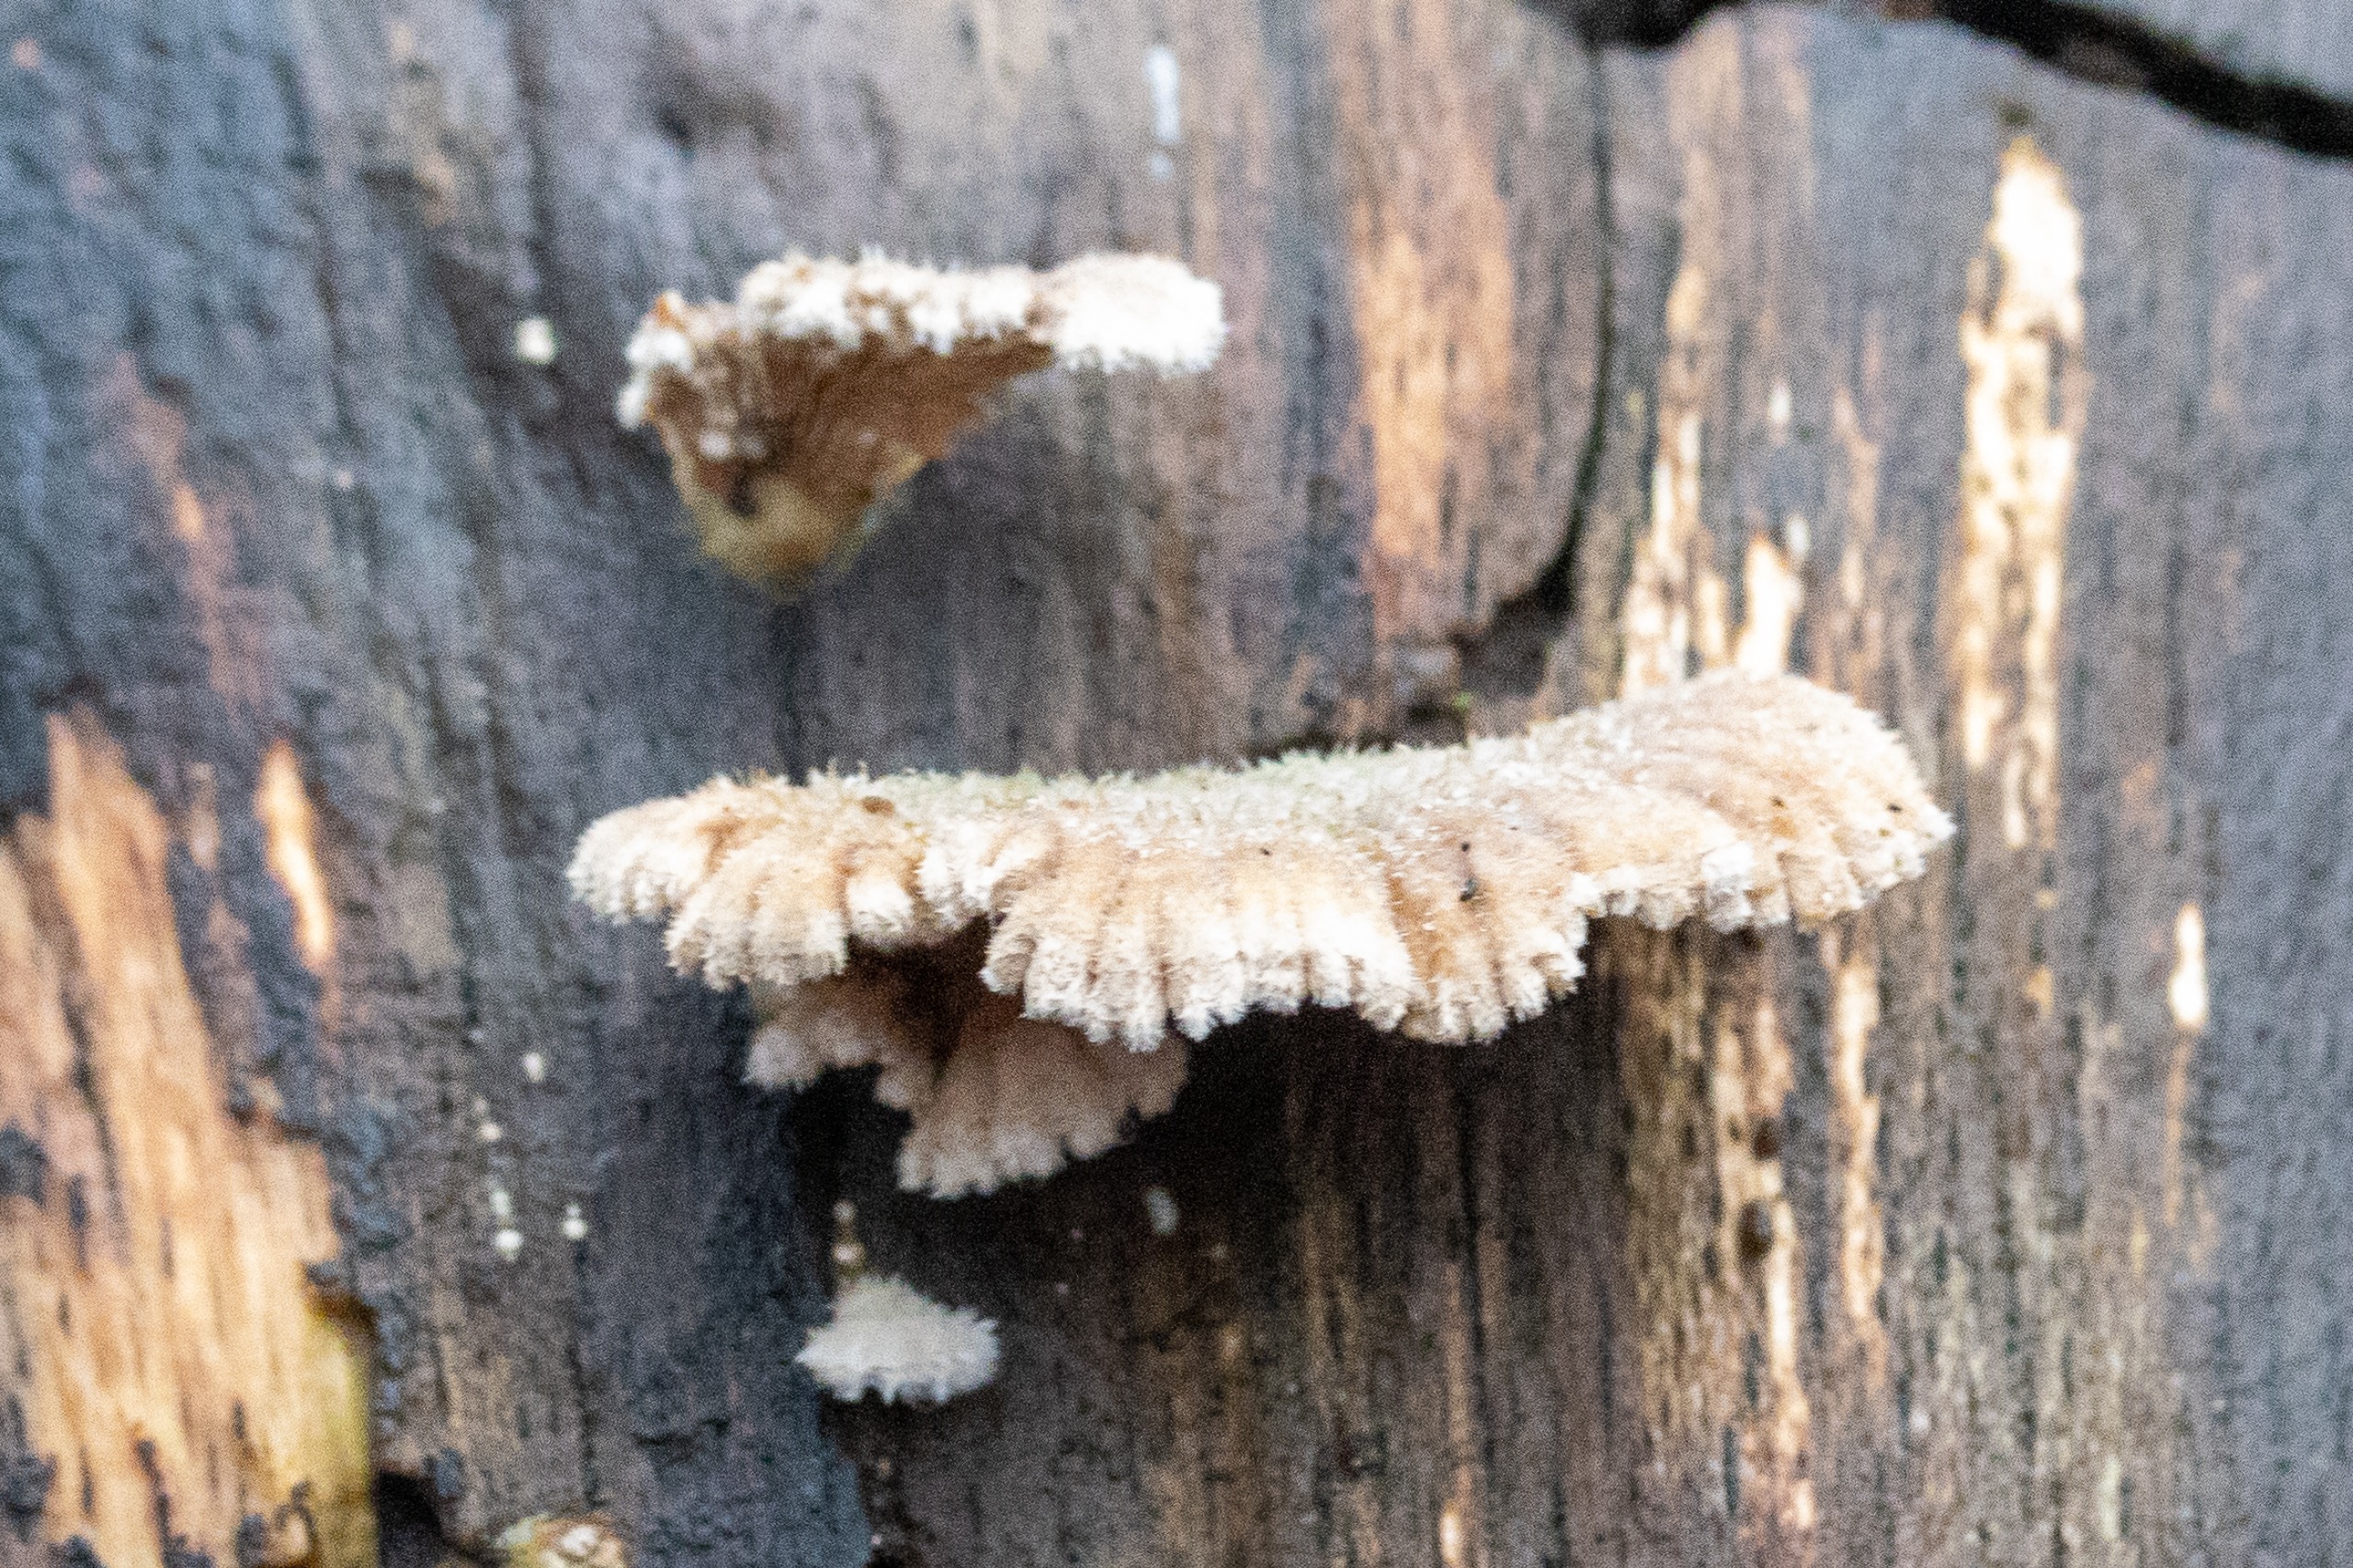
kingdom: Fungi
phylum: Basidiomycota
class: Agaricomycetes
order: Agaricales
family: Schizophyllaceae
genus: Schizophyllum
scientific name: Schizophyllum commune
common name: Kløvblad
